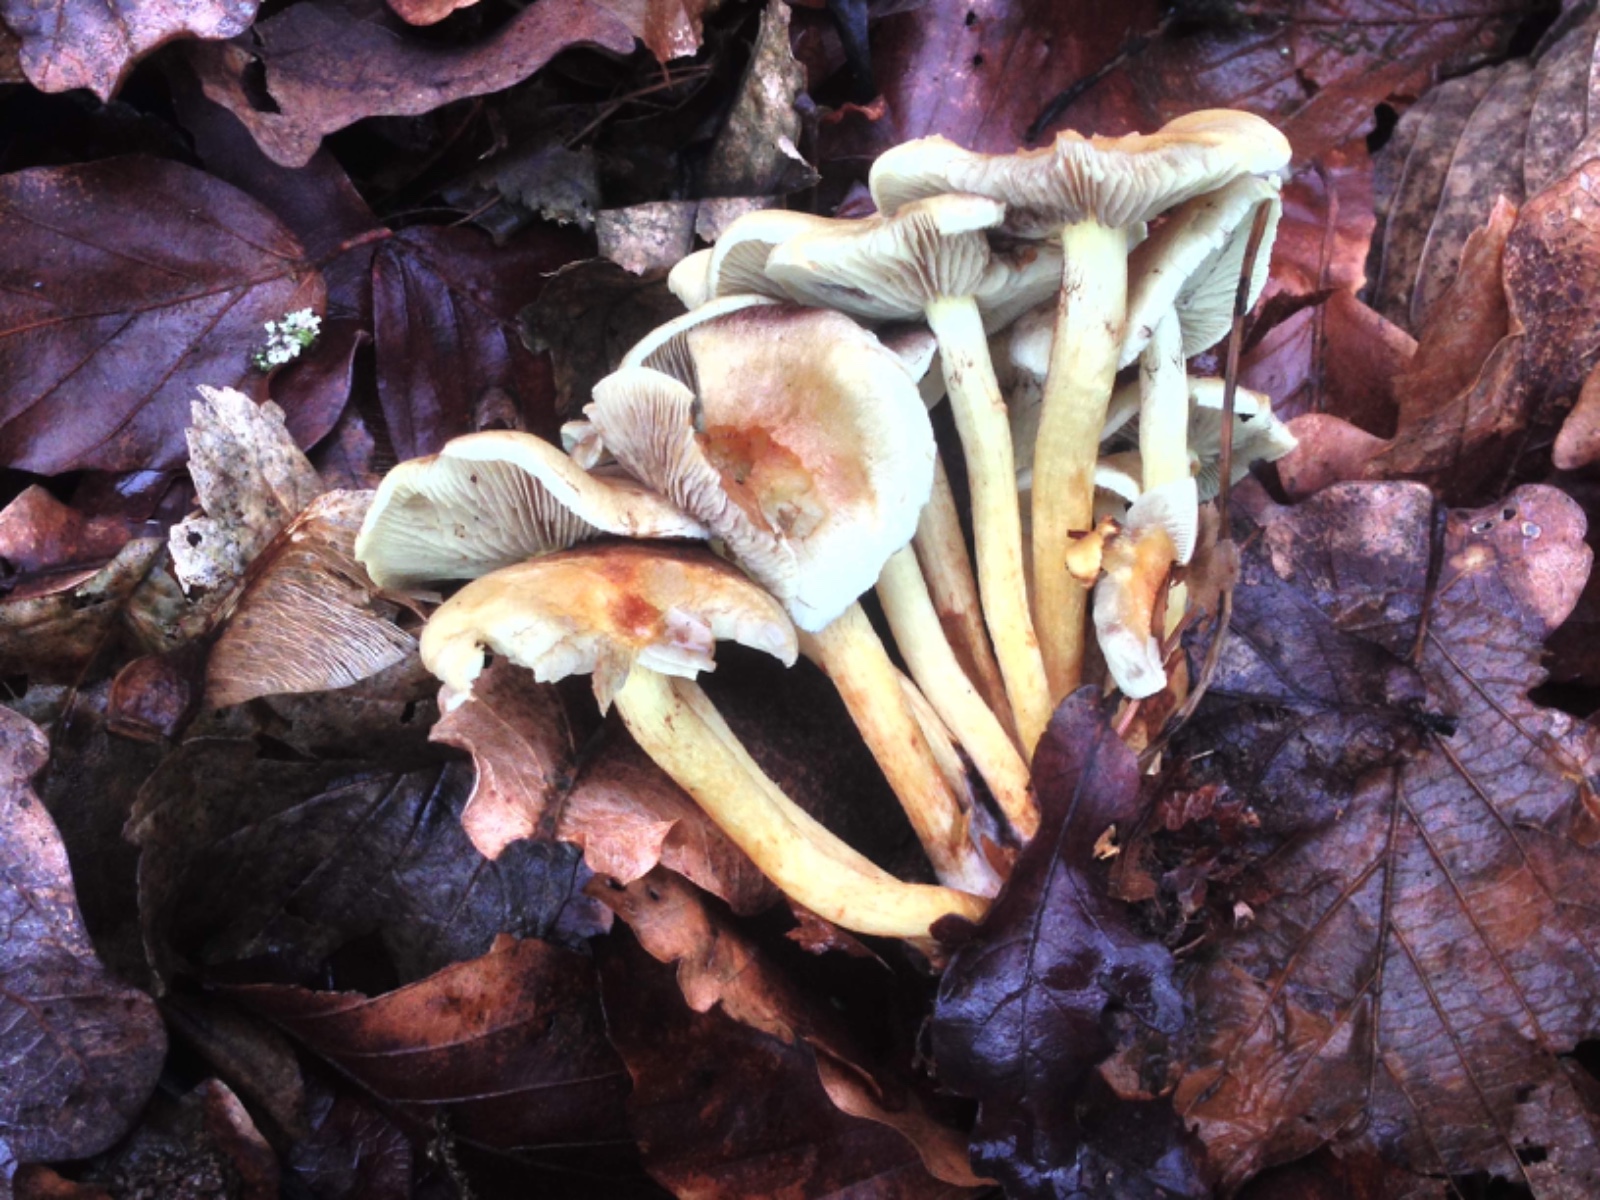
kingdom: Fungi
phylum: Basidiomycota
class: Agaricomycetes
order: Agaricales
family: Strophariaceae
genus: Hypholoma
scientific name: Hypholoma fasciculare
